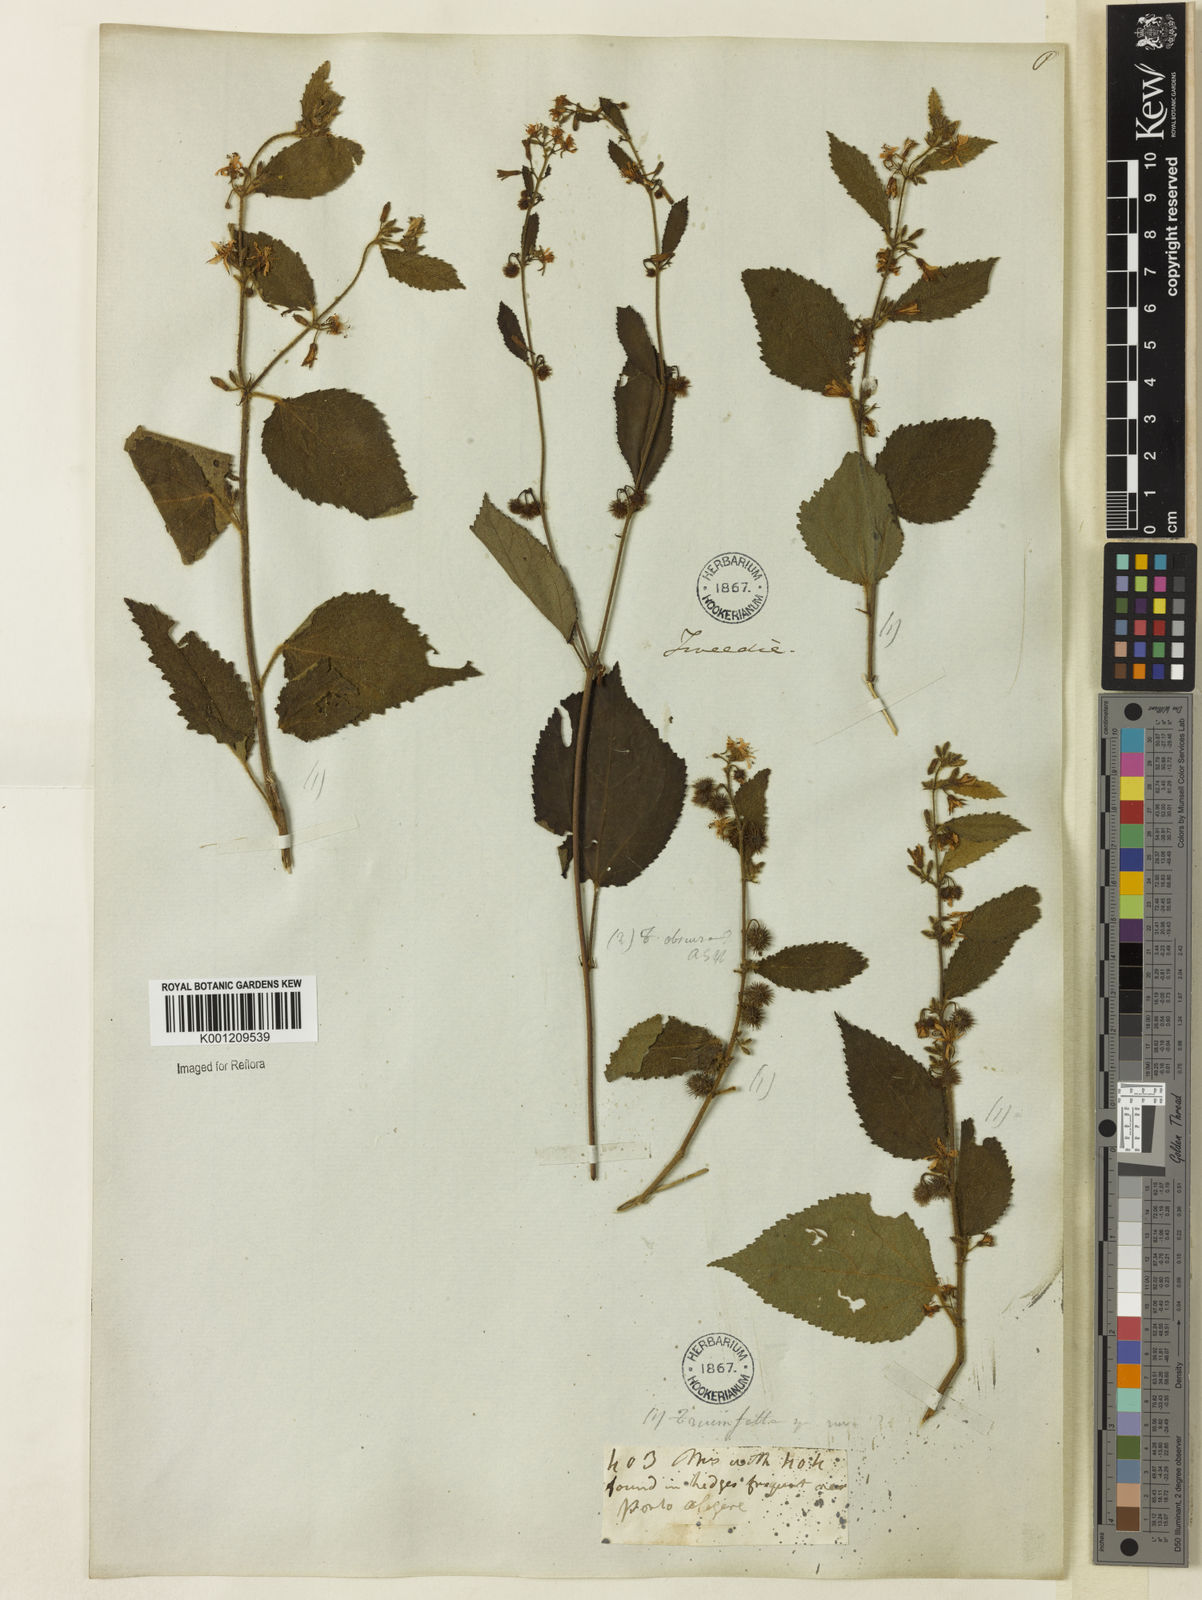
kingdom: Plantae
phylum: Tracheophyta
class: Magnoliopsida
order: Malvales
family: Malvaceae
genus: Triumfetta
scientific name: Triumfetta semitriloba
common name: Sacramento burbark
